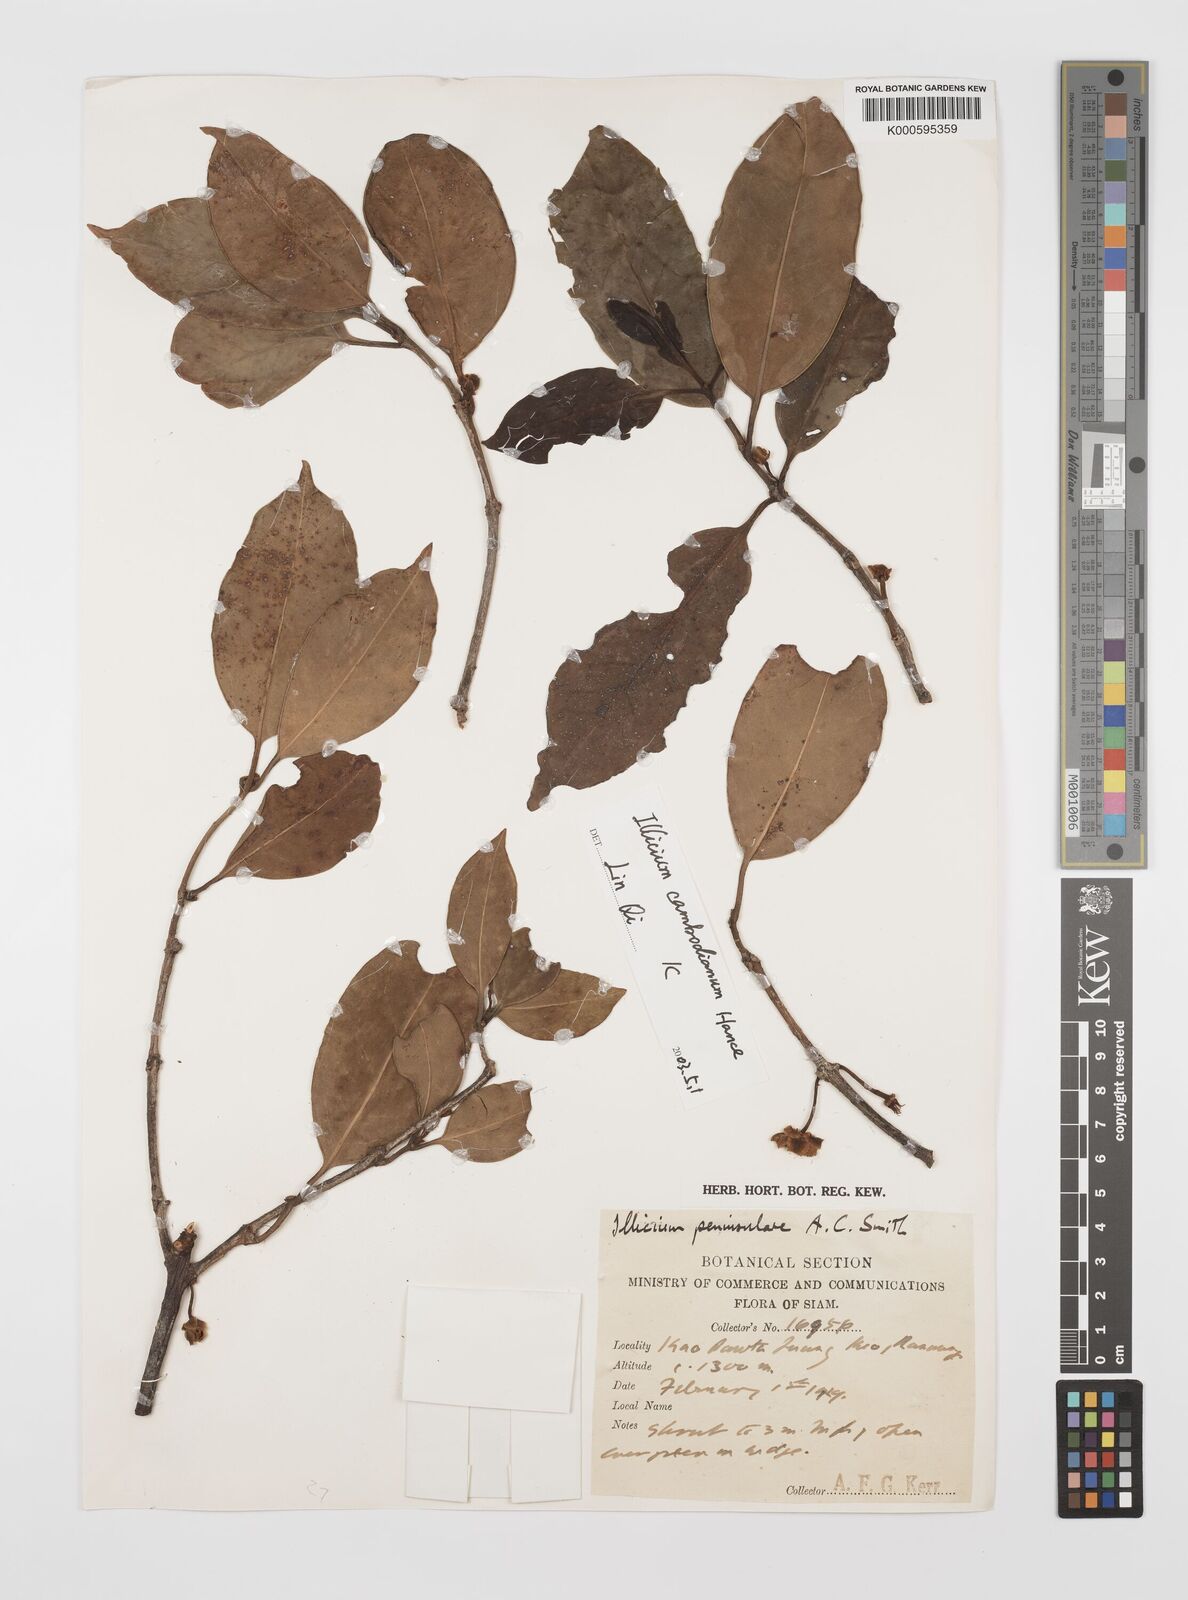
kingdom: Plantae
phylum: Tracheophyta
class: Magnoliopsida
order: Austrobaileyales
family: Schisandraceae
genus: Illicium
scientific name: Illicium stapfii
